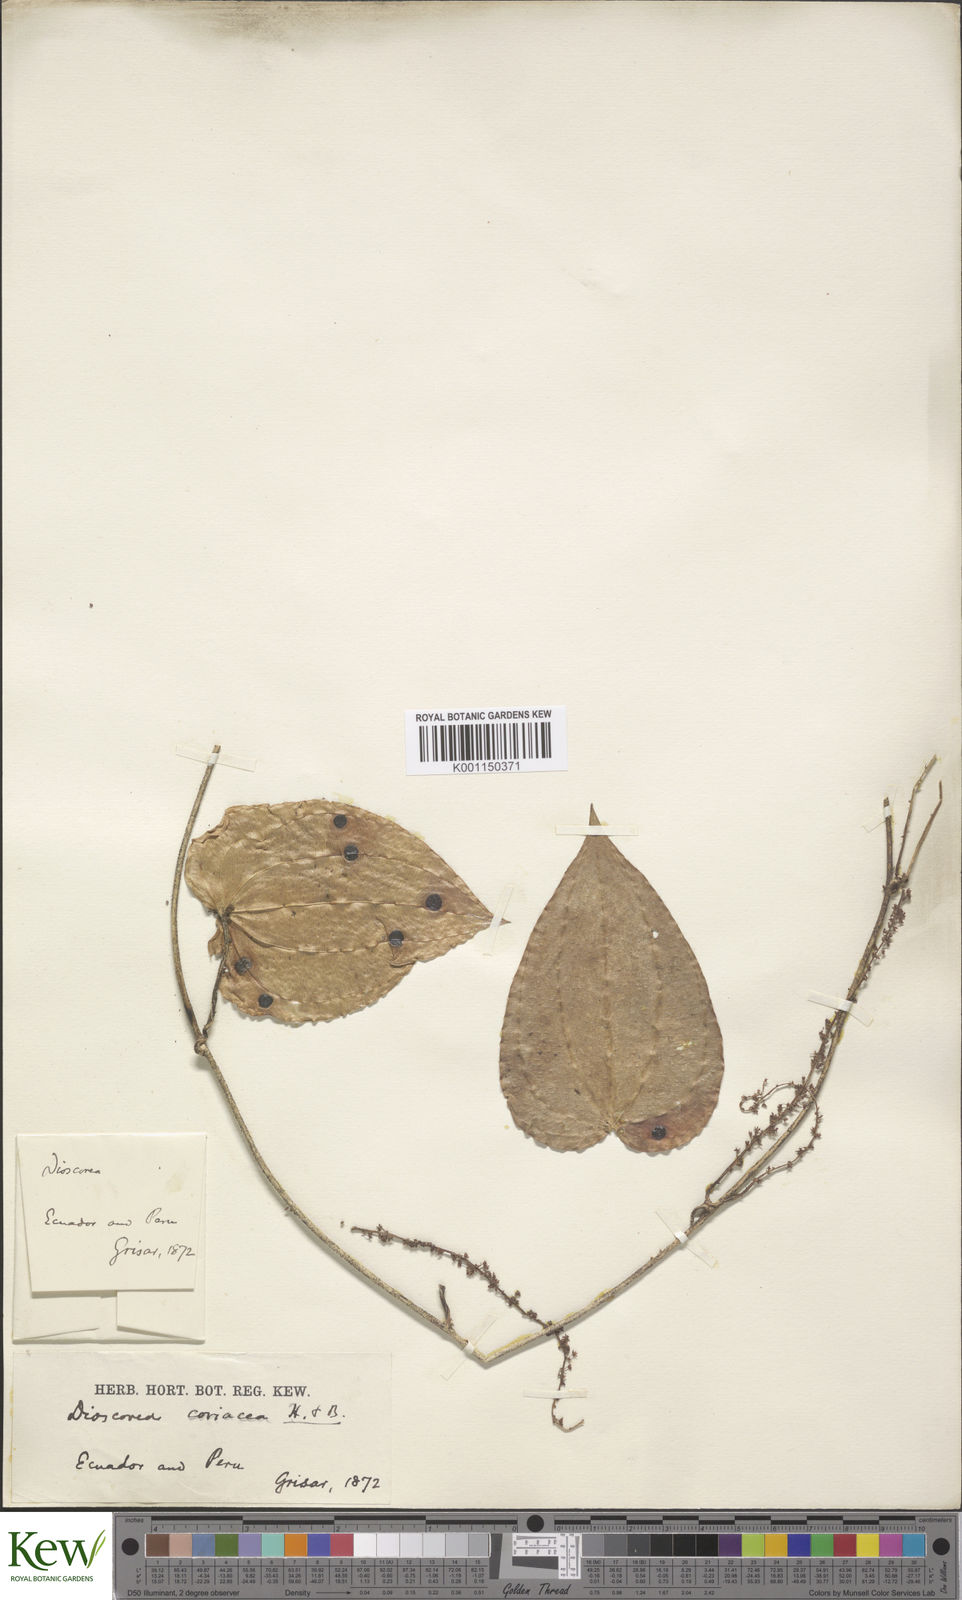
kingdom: Plantae
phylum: Tracheophyta
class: Liliopsida
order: Dioscoreales
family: Dioscoreaceae
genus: Dioscorea
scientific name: Dioscorea coriacea
